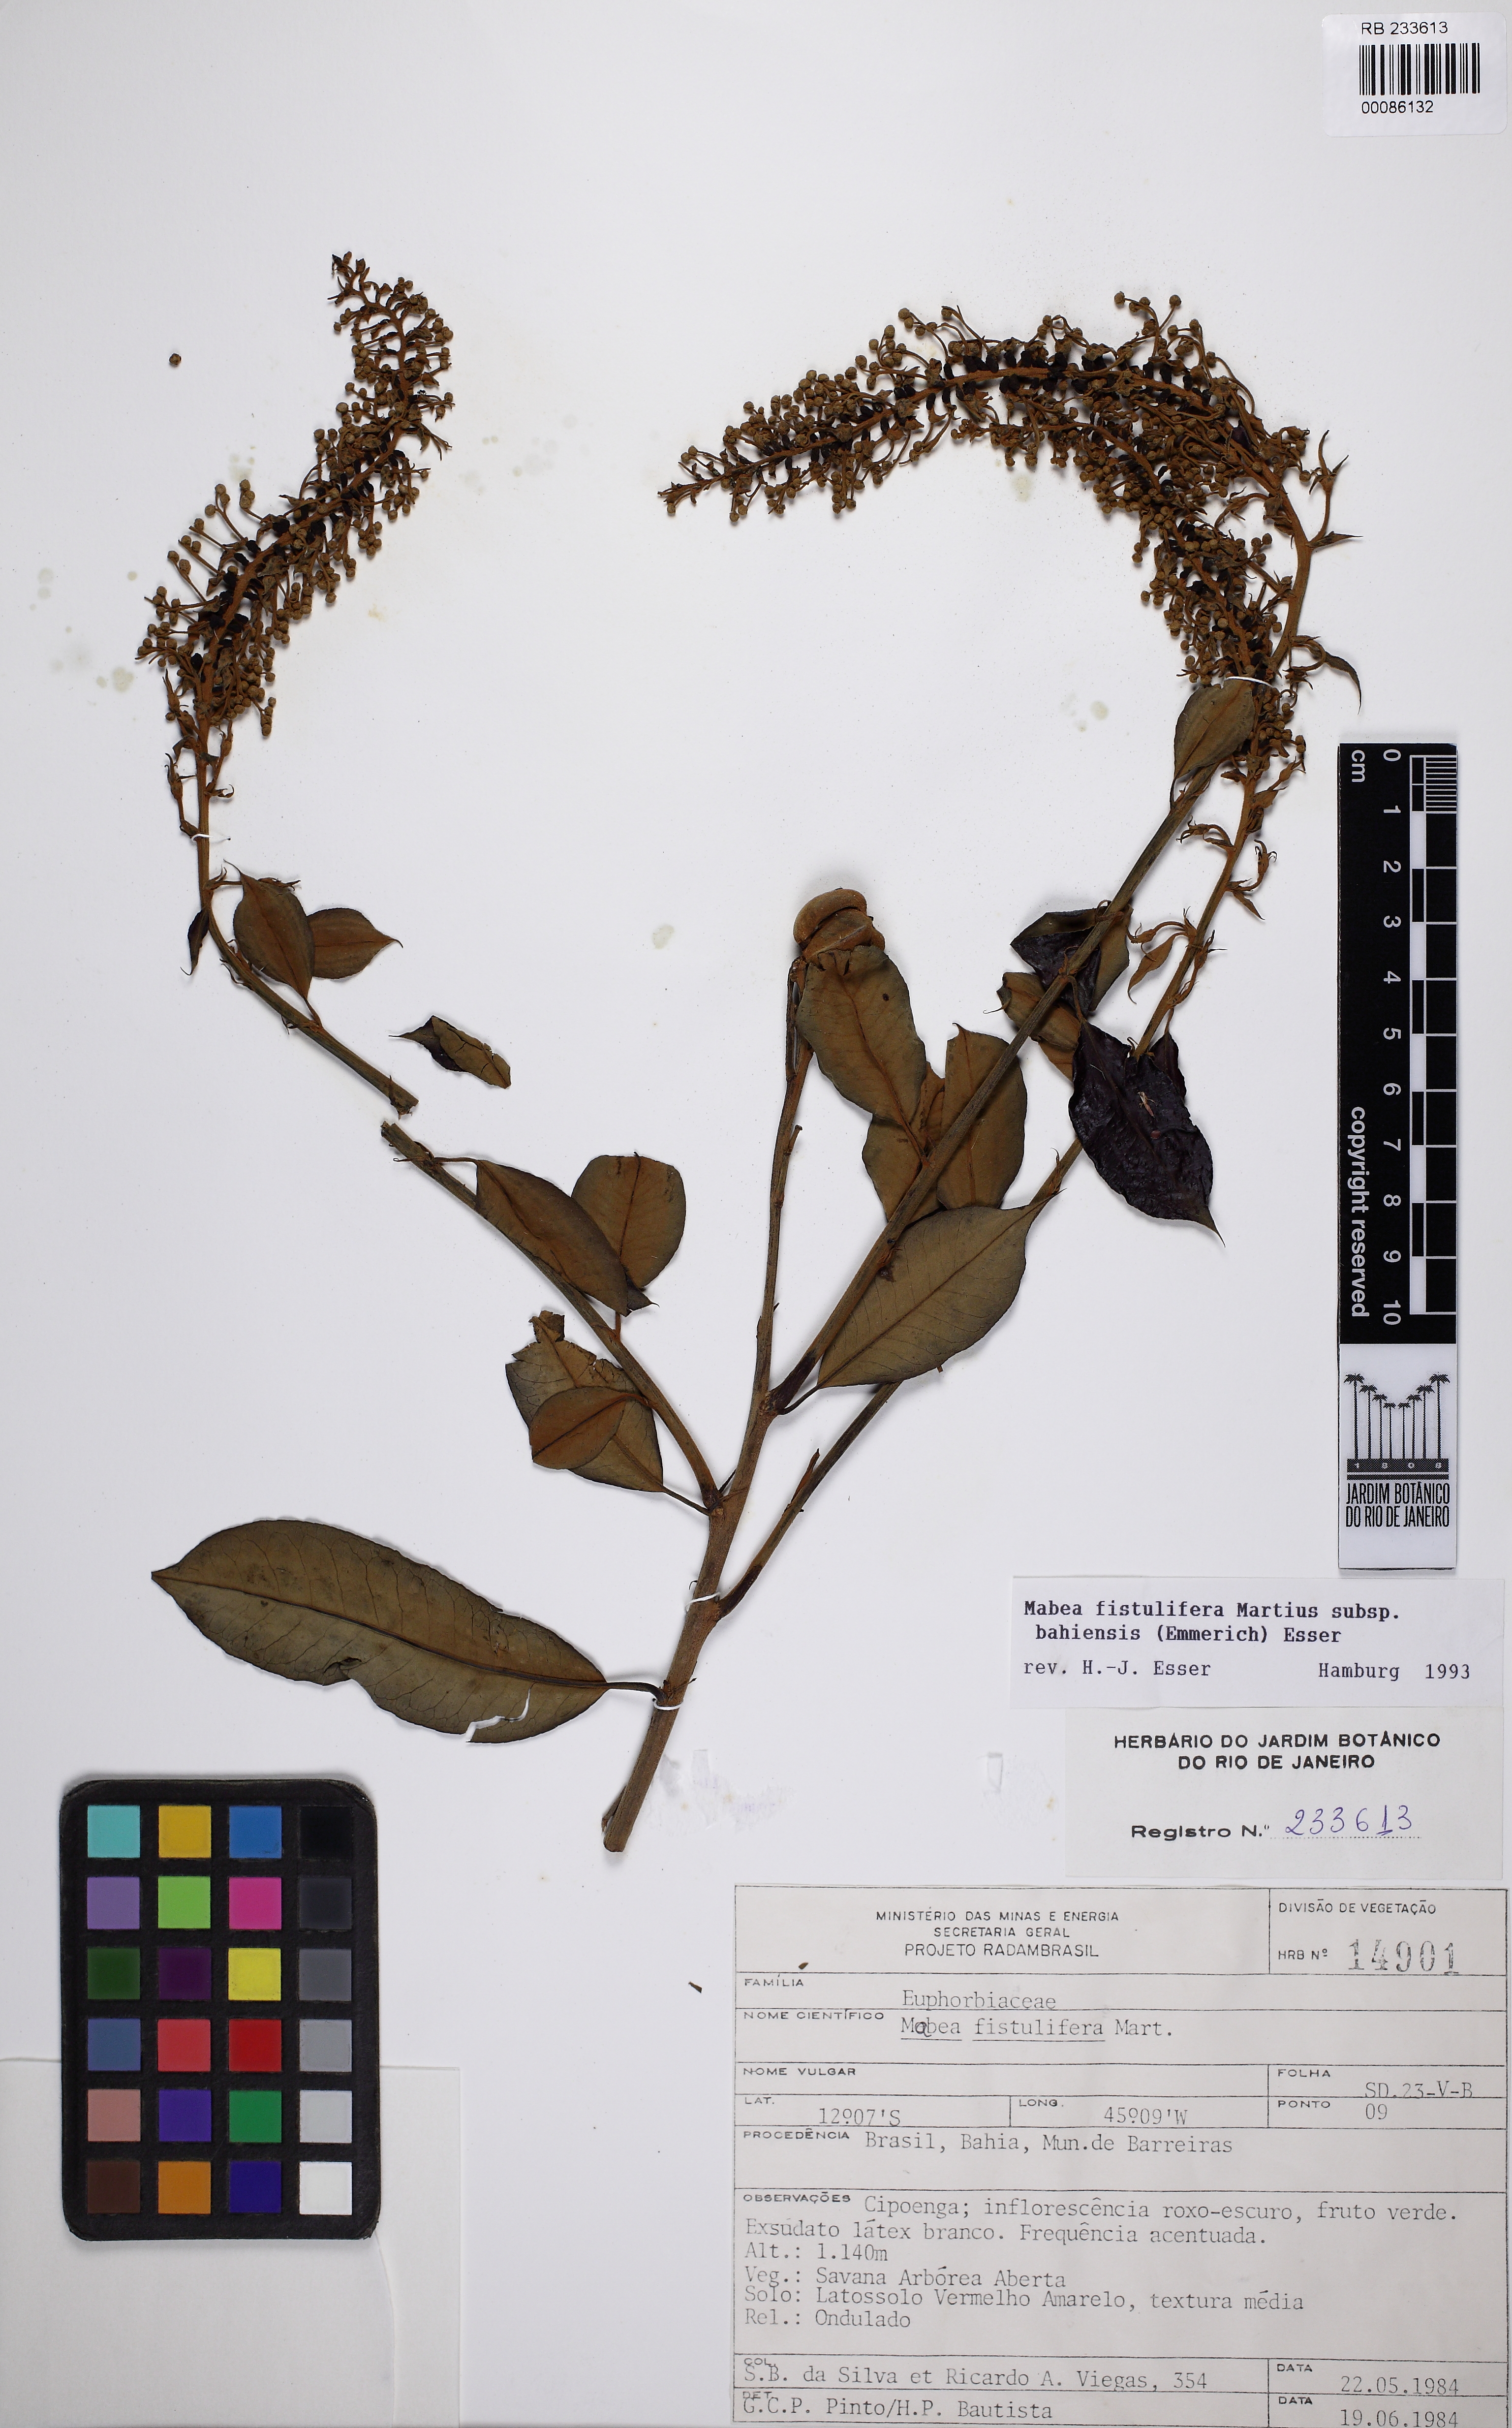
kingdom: Plantae
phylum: Tracheophyta
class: Magnoliopsida
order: Malpighiales
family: Euphorbiaceae
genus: Mabea
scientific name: Mabea fistulifera
